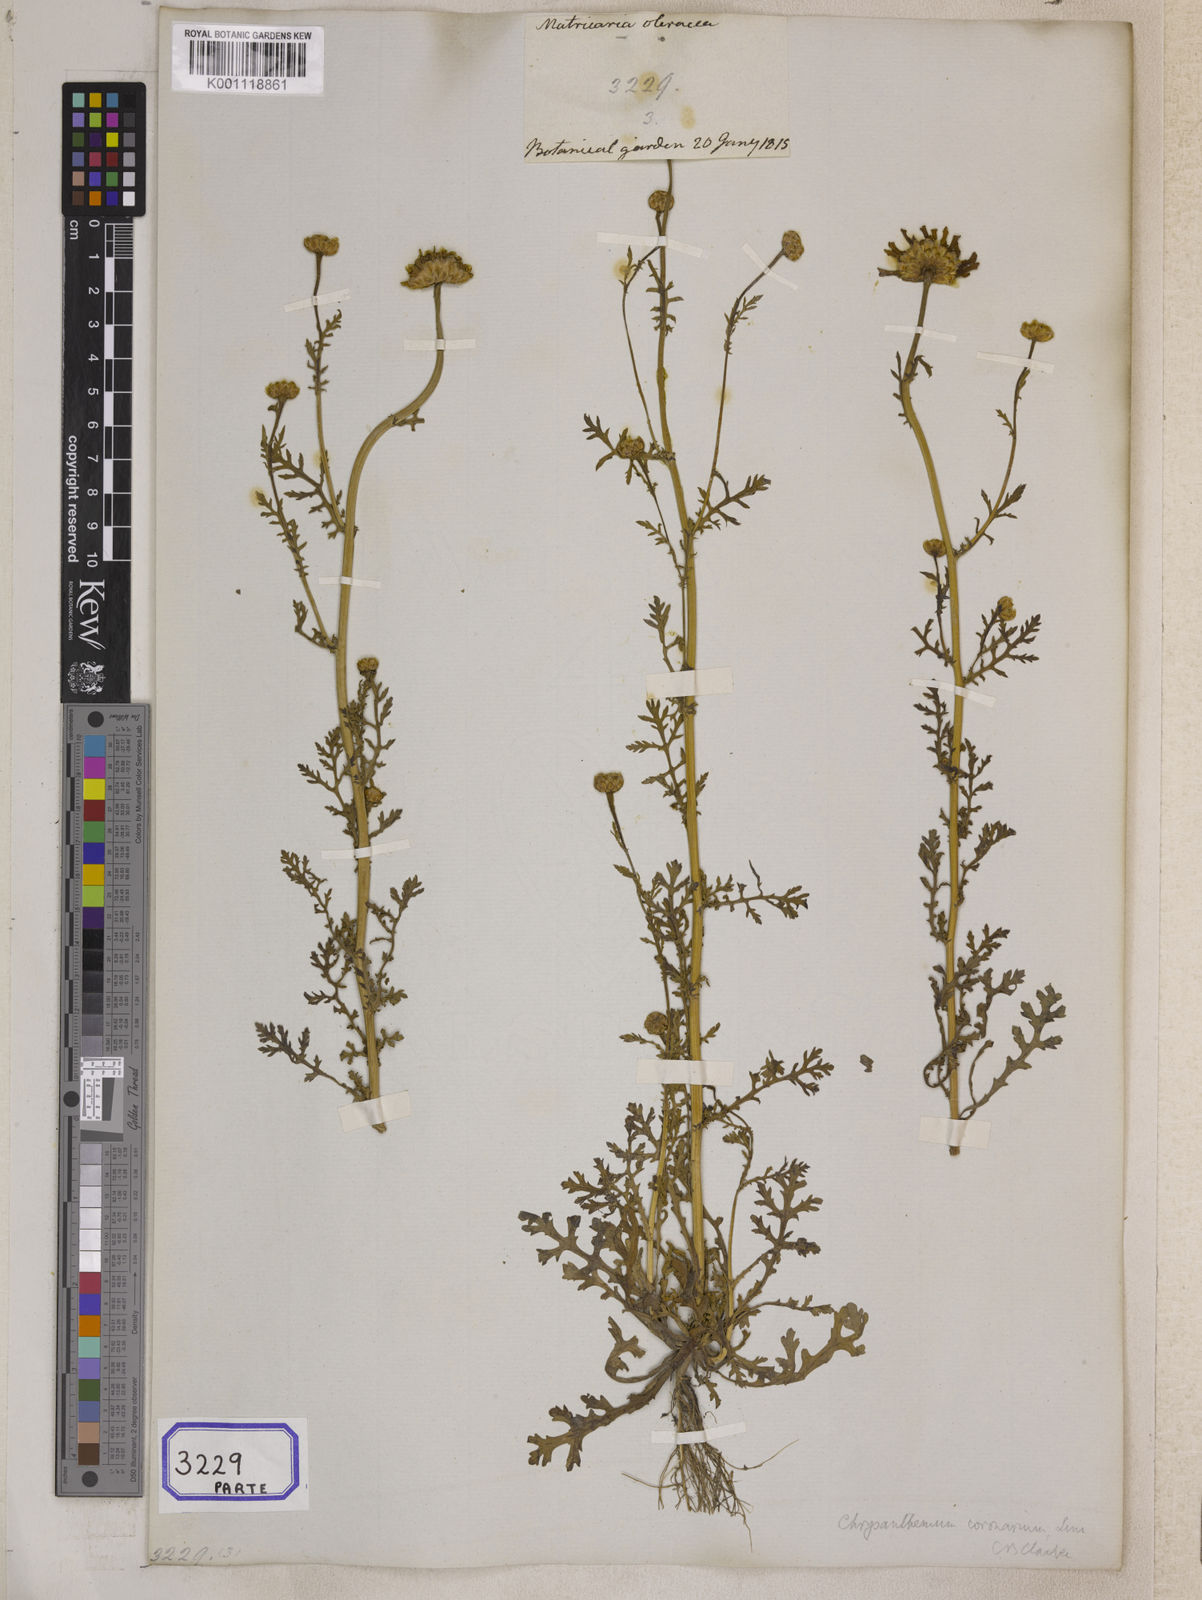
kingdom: Plantae
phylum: Tracheophyta
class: Magnoliopsida
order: Asterales
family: Asteraceae
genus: Glebionis
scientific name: Glebionis coronaria
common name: Crowndaisy
